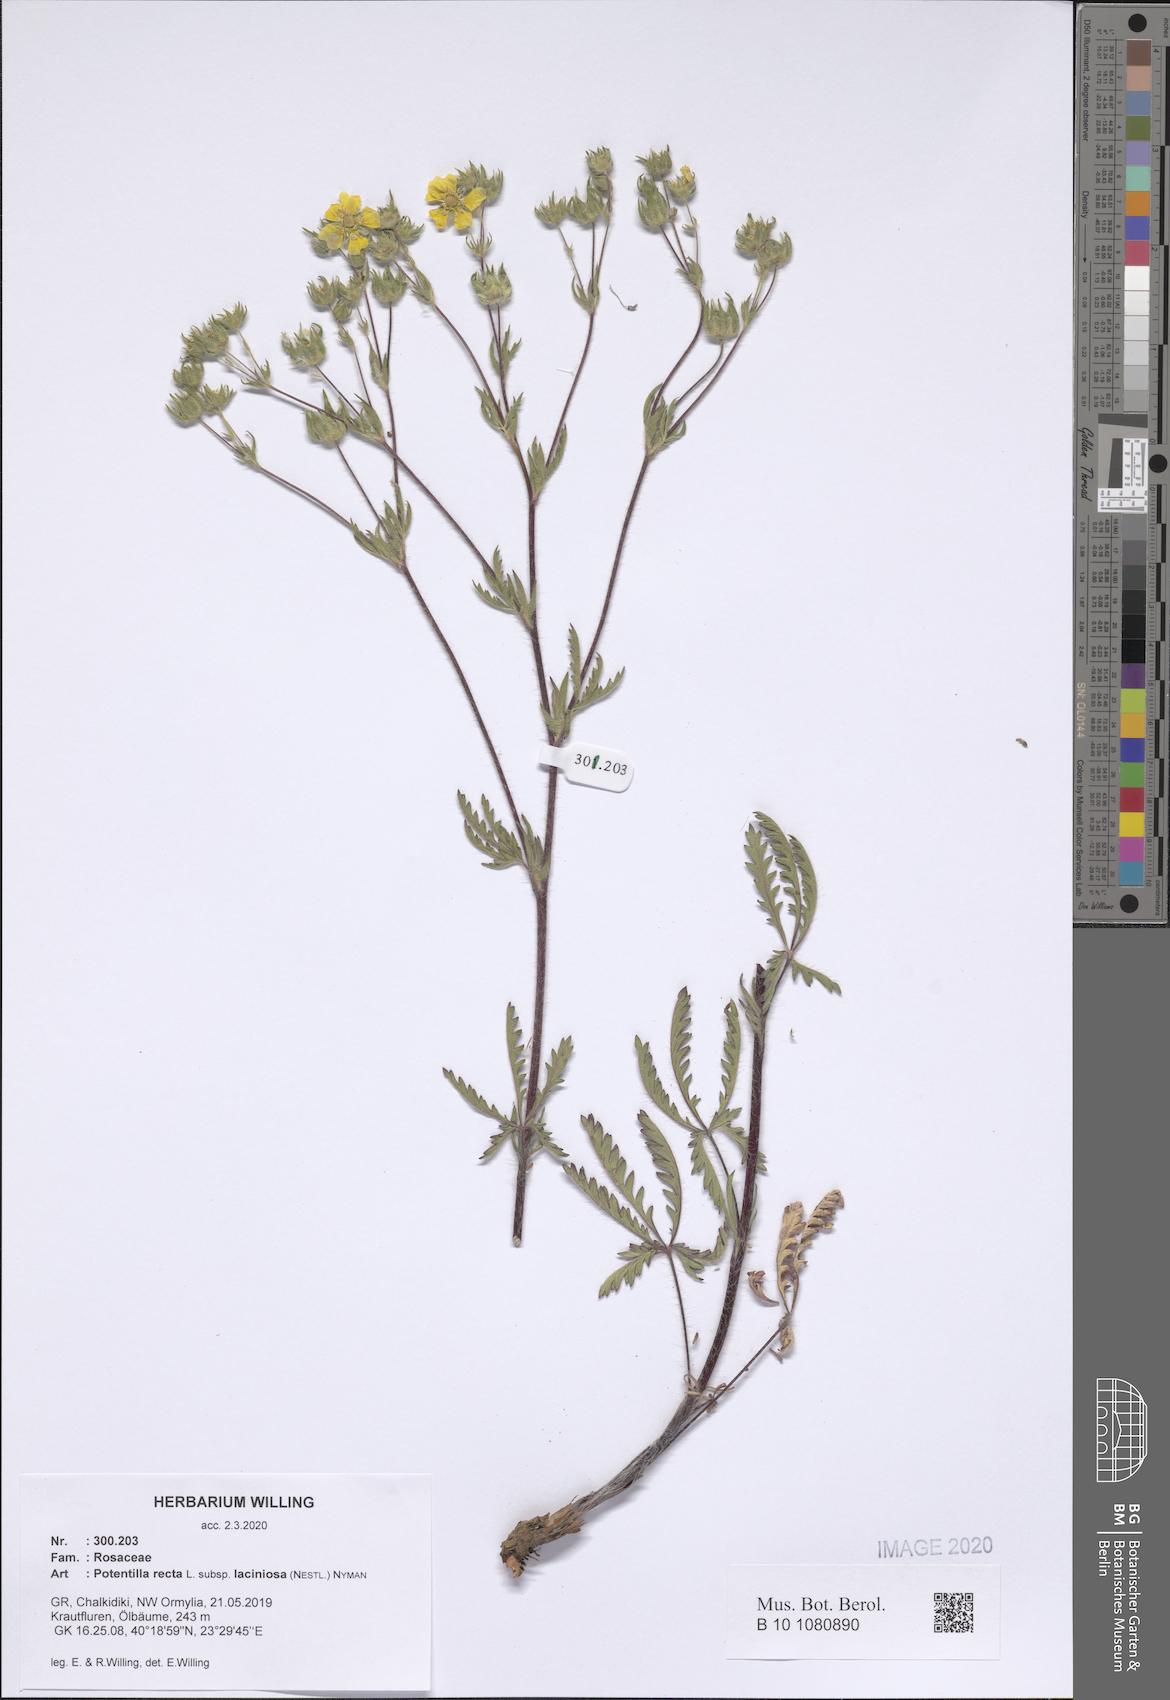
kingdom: Plantae
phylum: Tracheophyta
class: Magnoliopsida
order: Rosales
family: Rosaceae
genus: Potentilla
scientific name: Potentilla recta
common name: Sulphur cinquefoil
